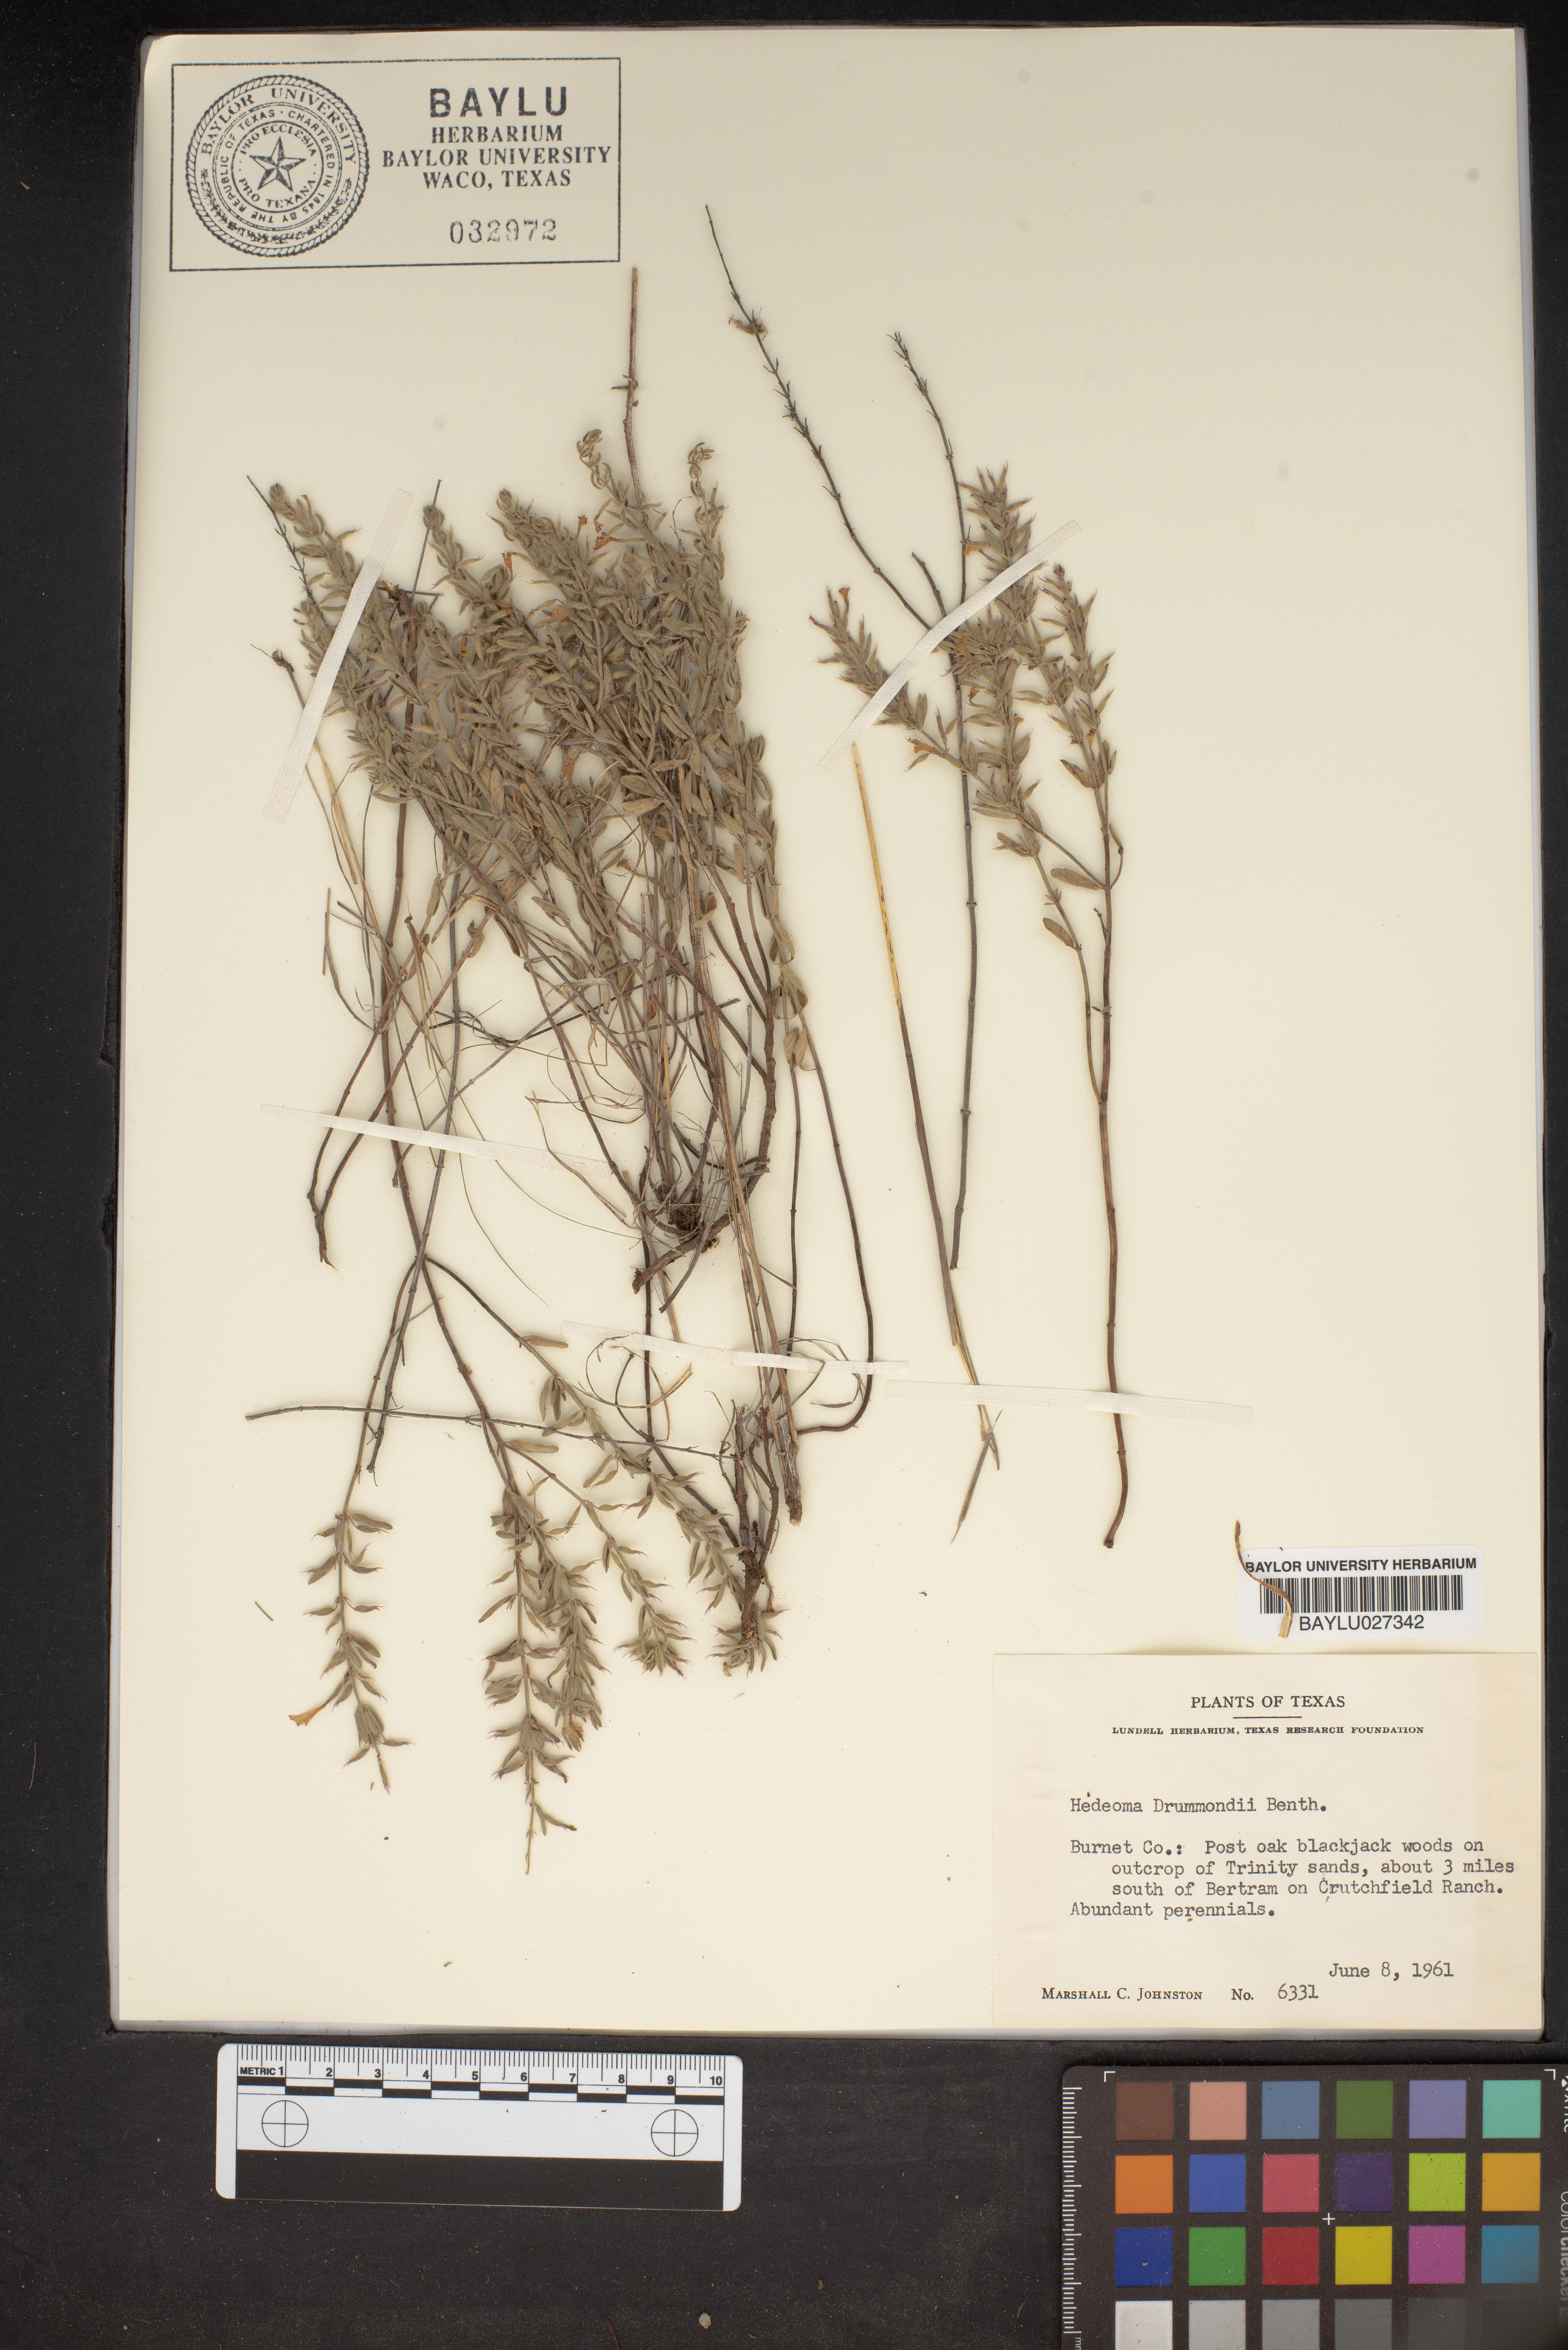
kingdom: Plantae
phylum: Tracheophyta
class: Magnoliopsida
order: Lamiales
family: Lamiaceae
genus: Hedeoma
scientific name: Hedeoma drummondii
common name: New mexico pennyroyal
